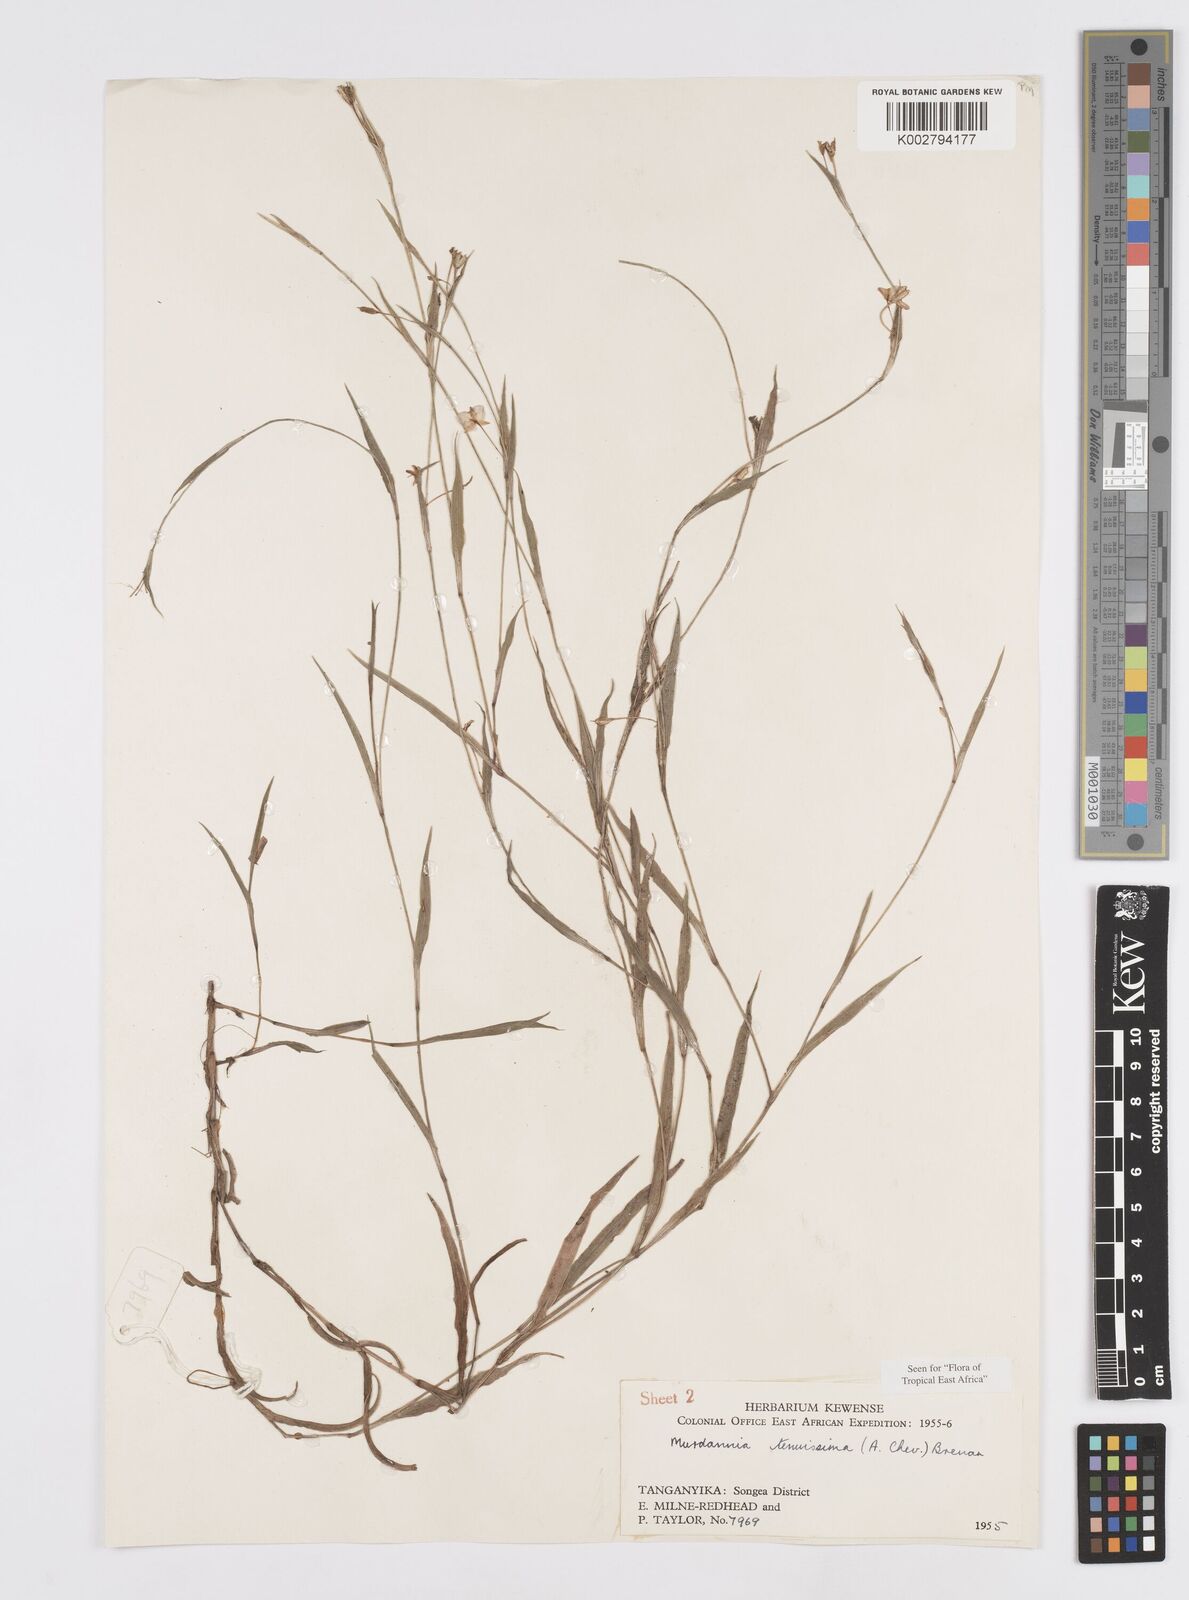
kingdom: Plantae
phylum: Tracheophyta
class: Liliopsida
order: Commelinales
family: Commelinaceae
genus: Murdannia
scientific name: Murdannia tenuissima
